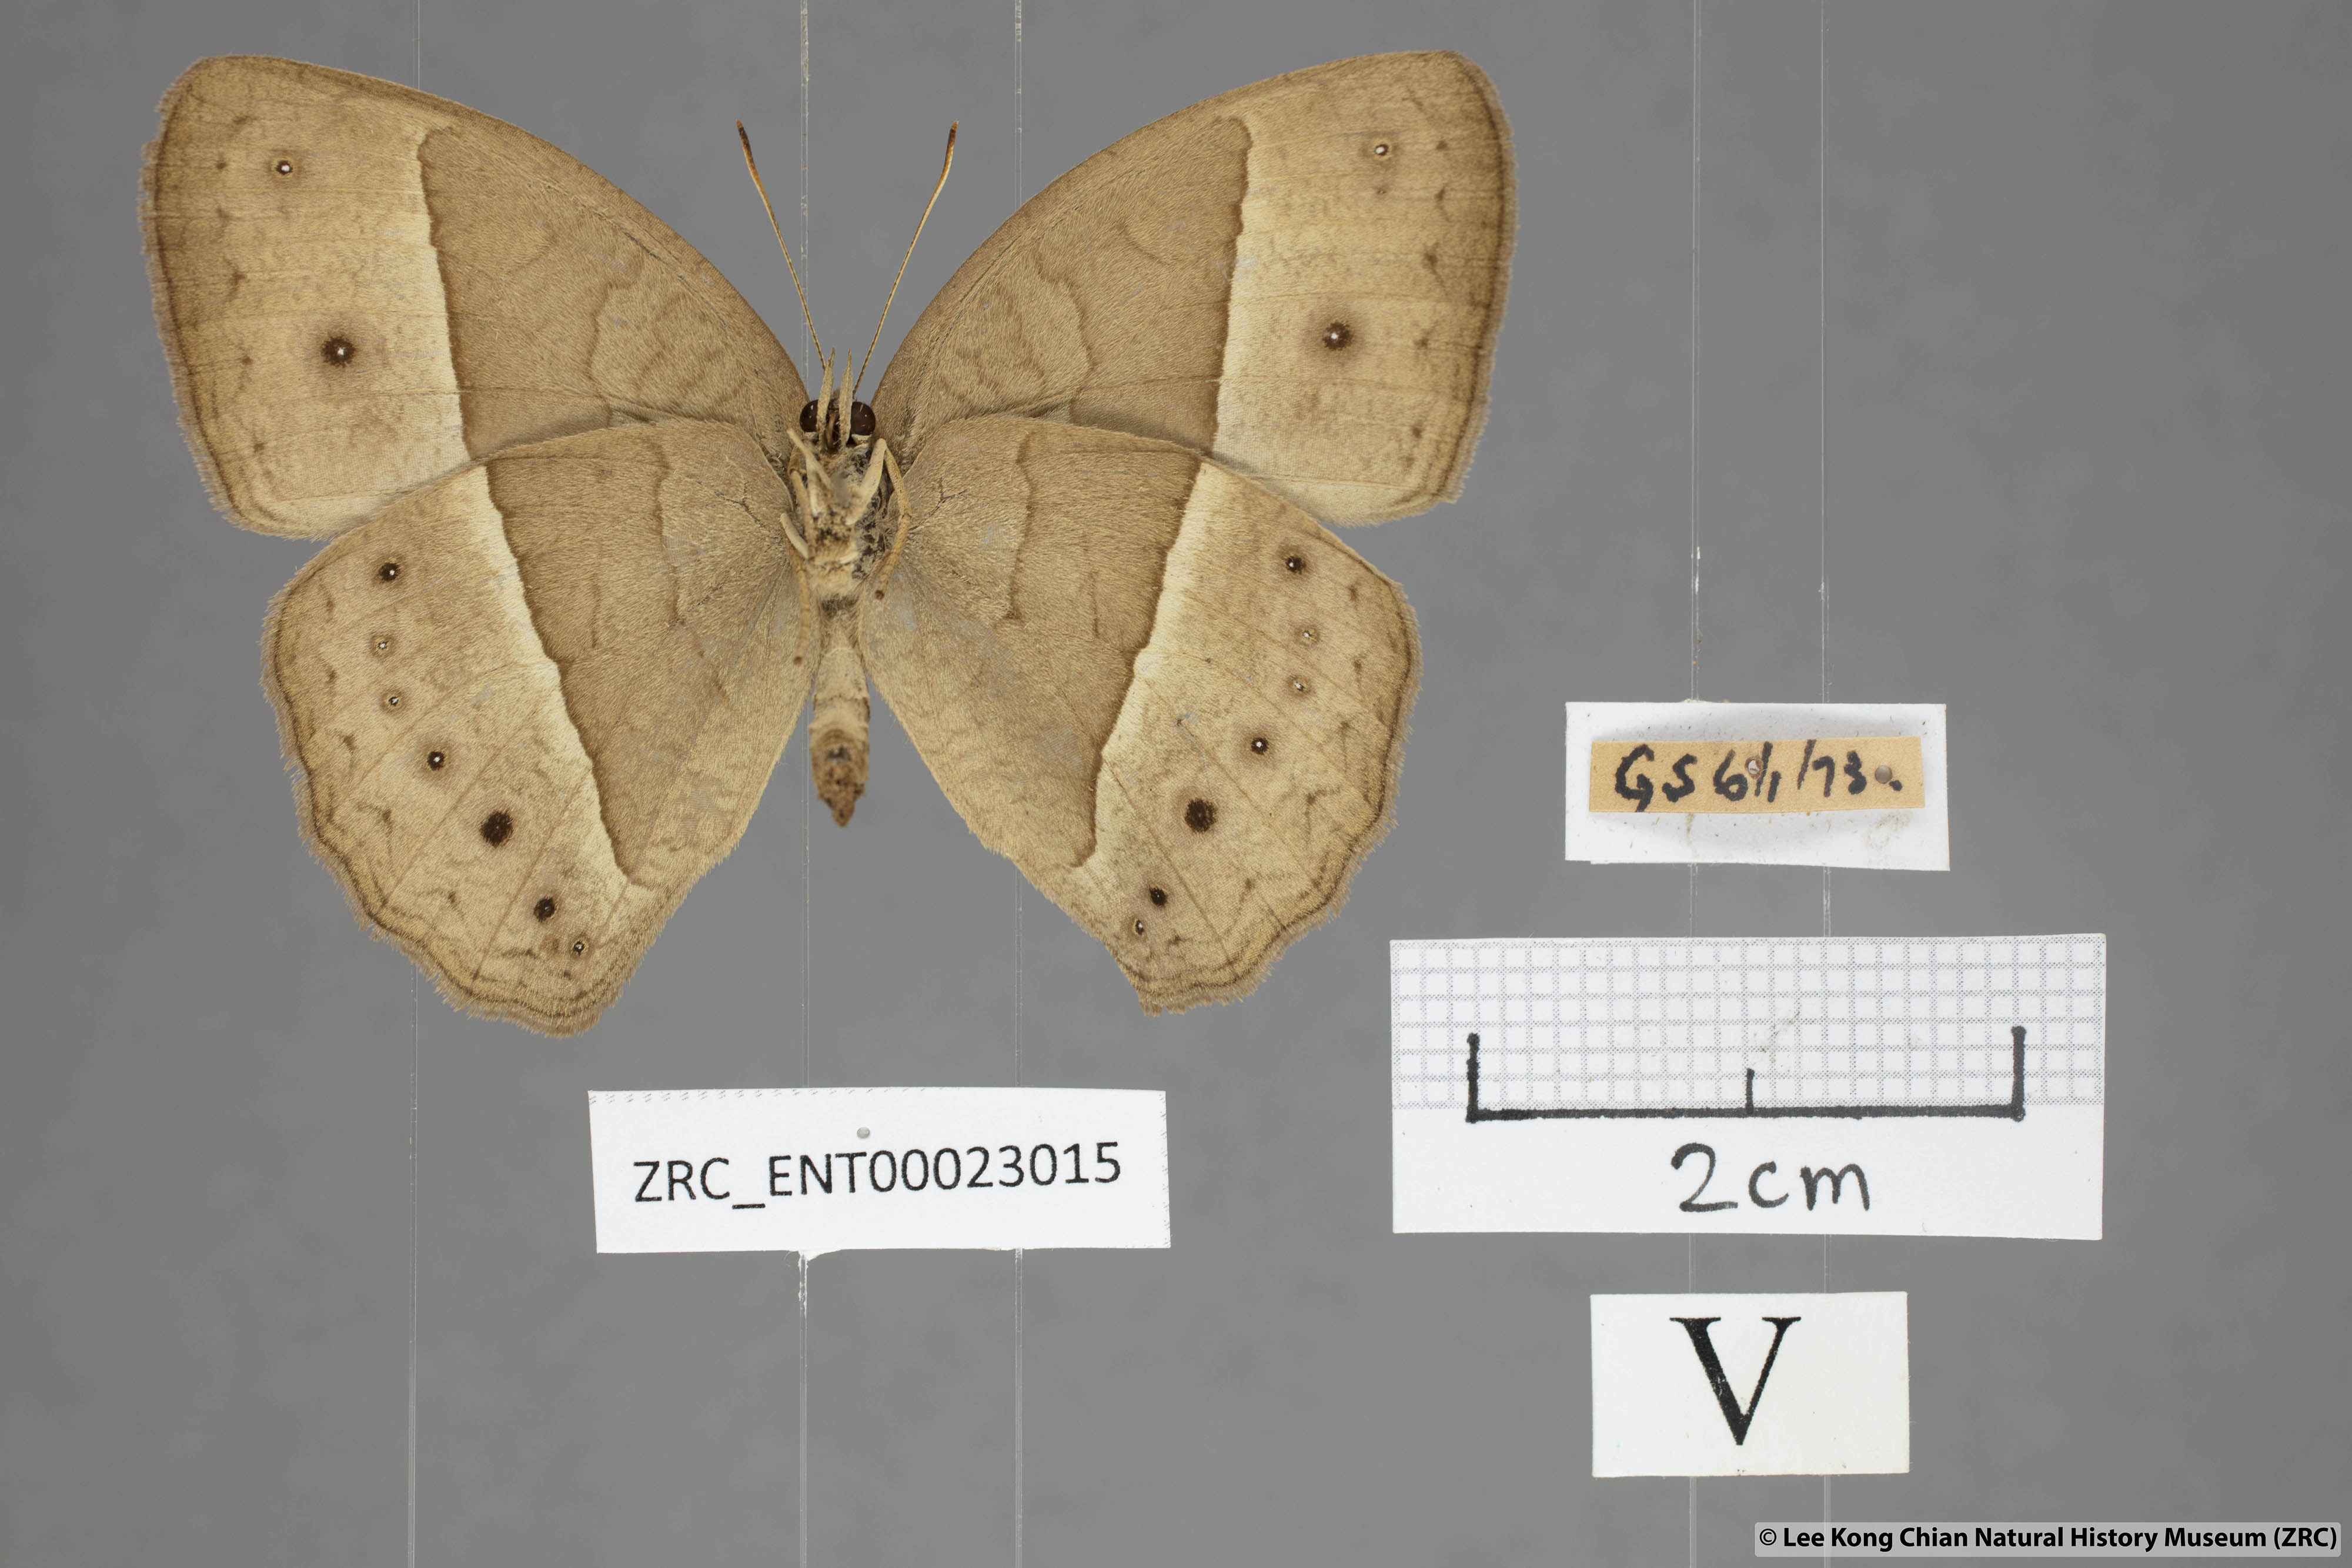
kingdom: Animalia
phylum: Arthropoda
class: Insecta
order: Lepidoptera
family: Nymphalidae
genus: Mycalesis
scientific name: Mycalesis visala
